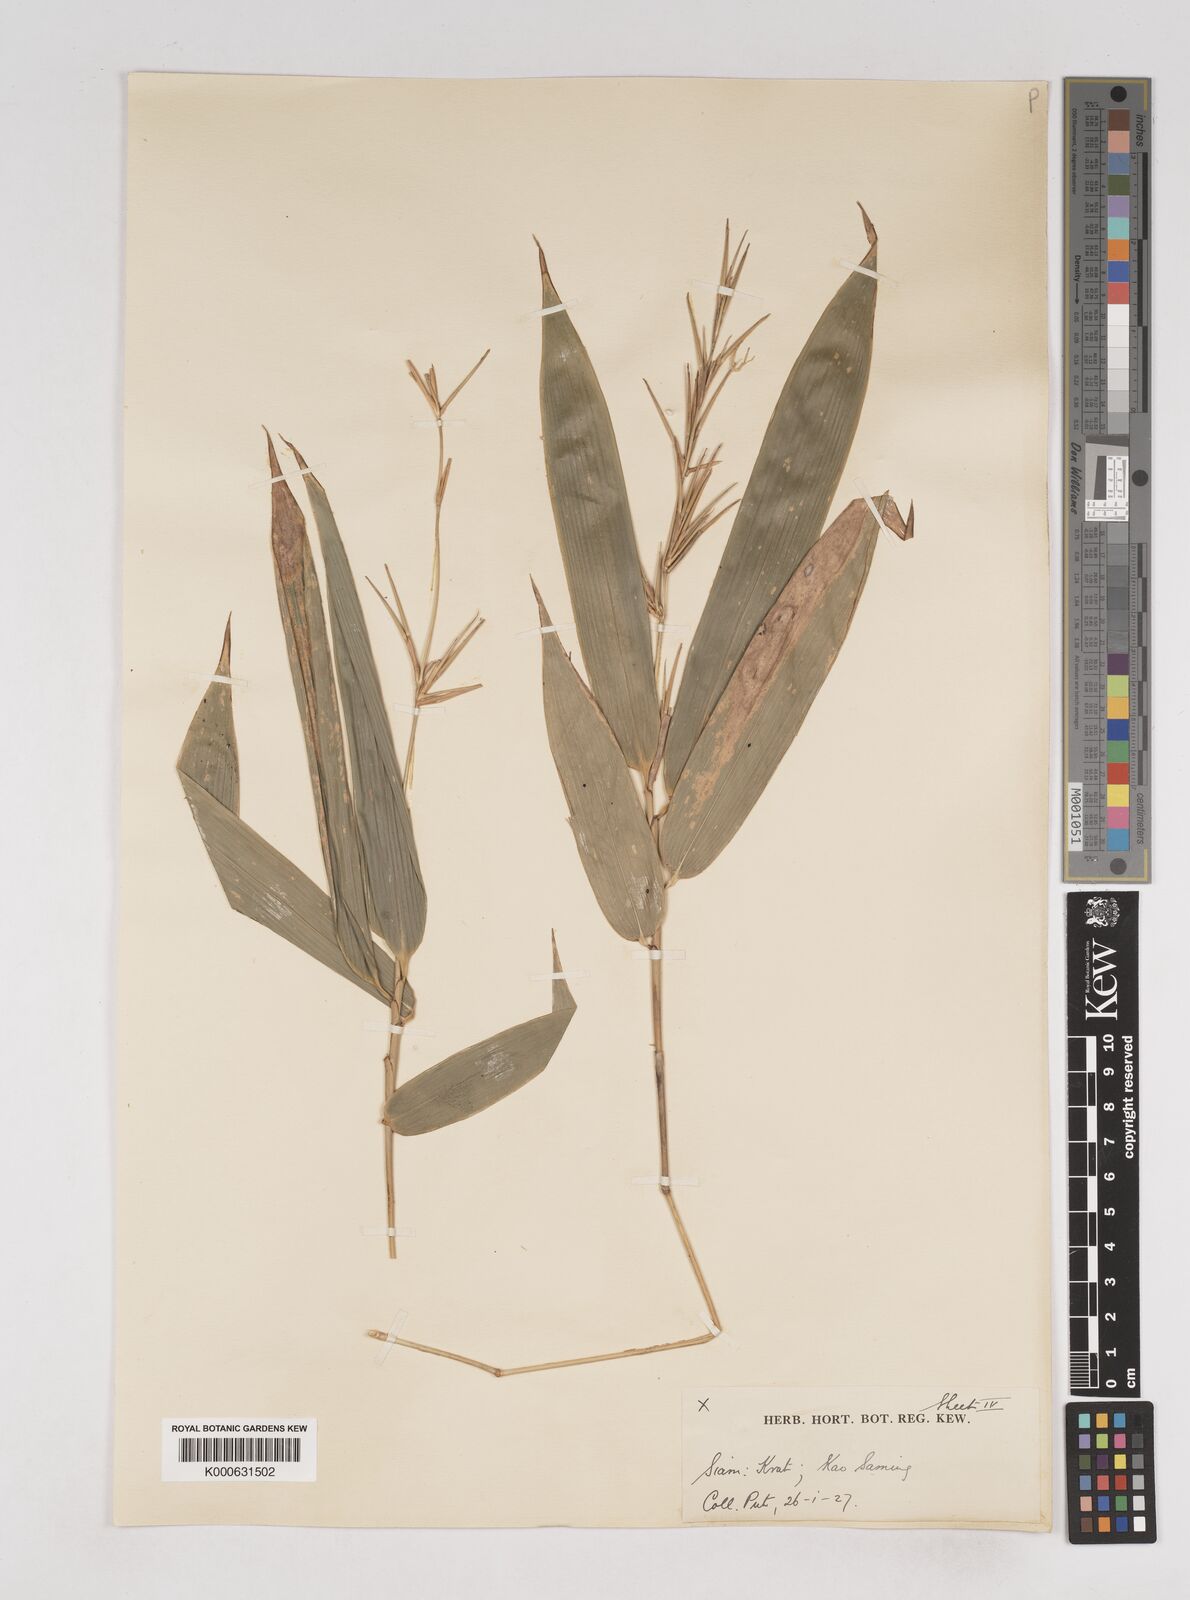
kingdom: Plantae
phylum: Tracheophyta
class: Liliopsida
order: Poales
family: Poaceae
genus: Schizostachyum
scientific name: Schizostachyum
